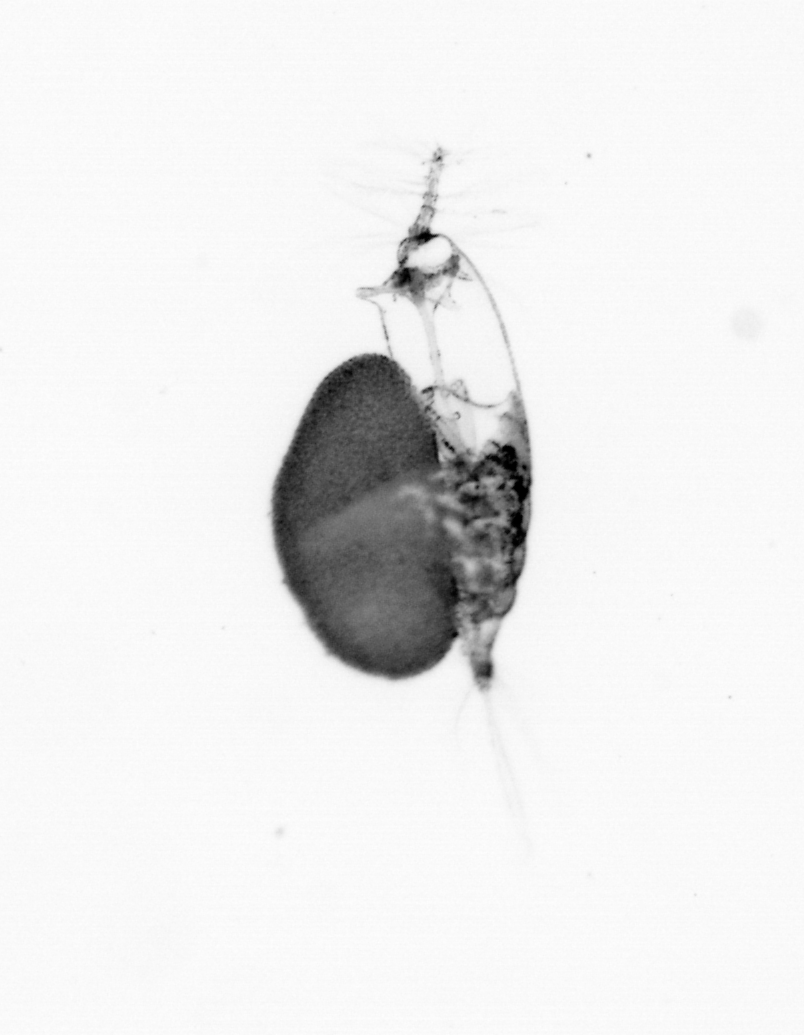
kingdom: Animalia
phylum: Arthropoda
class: Copepoda
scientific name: Copepoda
